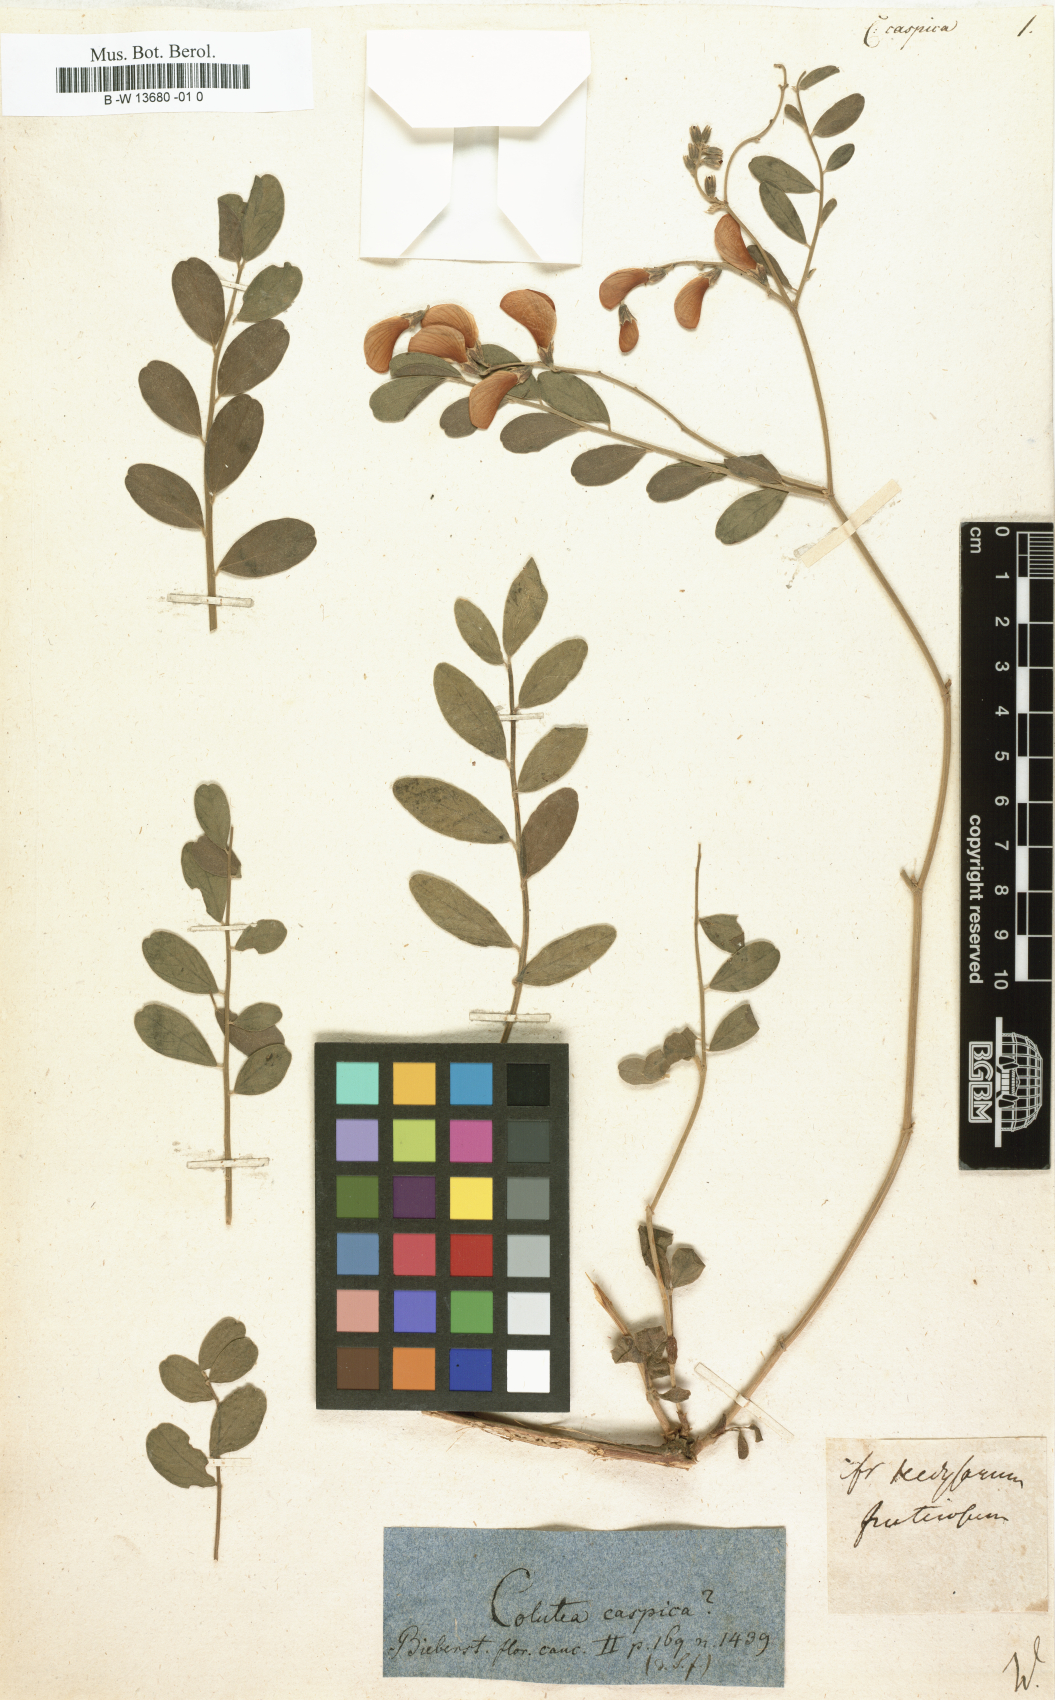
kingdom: Plantae
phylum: Tracheophyta
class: Magnoliopsida
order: Fabales
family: Fabaceae
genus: Sphaerophysa
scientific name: Sphaerophysa salsula
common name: Alkali swainsonpea
